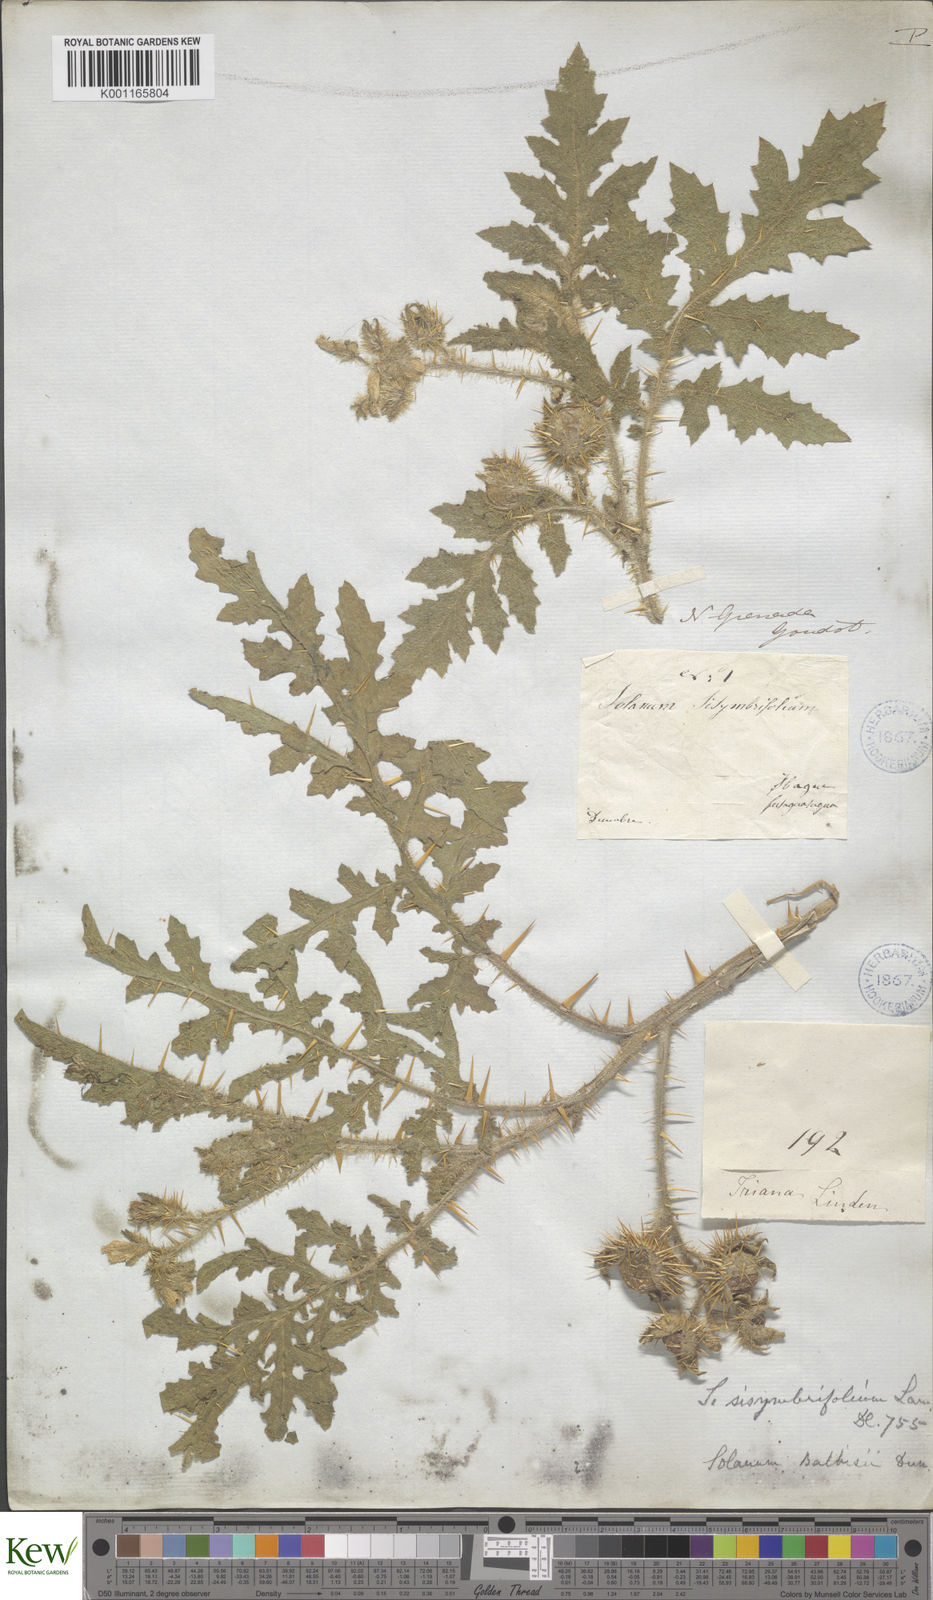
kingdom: Plantae
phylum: Tracheophyta
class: Magnoliopsida
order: Solanales
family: Solanaceae
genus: Solanum
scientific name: Solanum sisymbriifolium
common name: Red buffalo-bur
